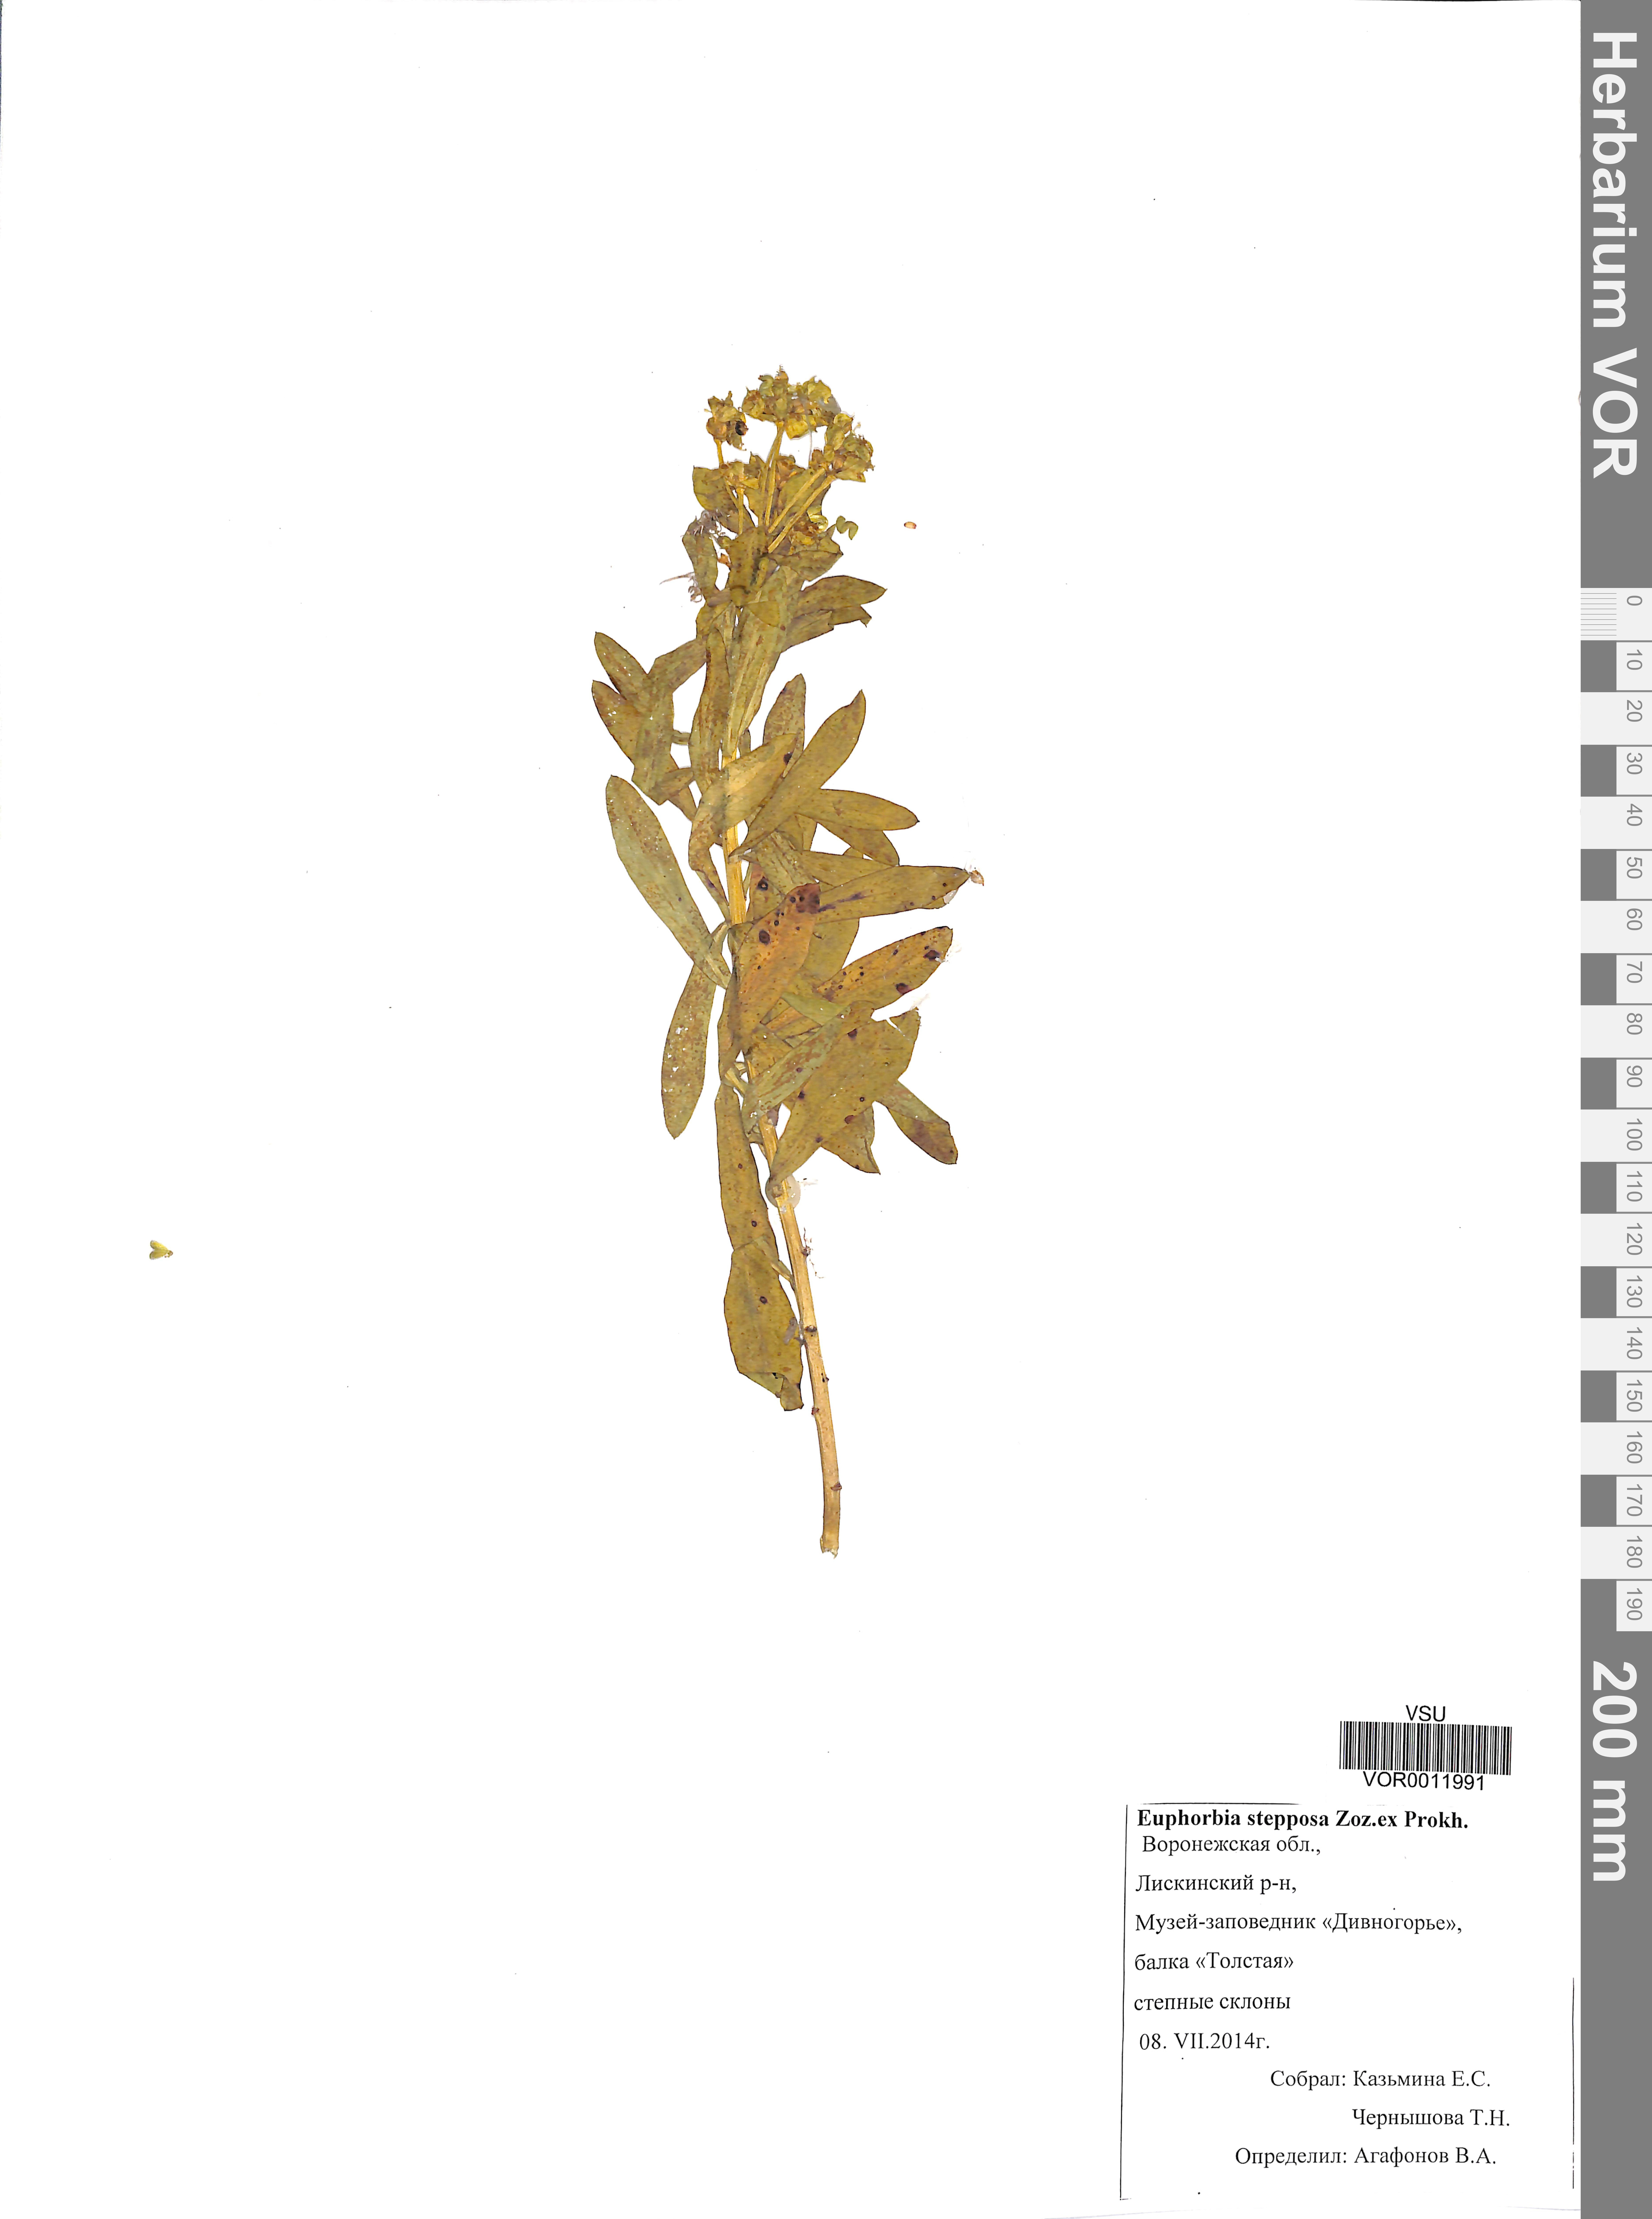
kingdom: Plantae
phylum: Tracheophyta
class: Magnoliopsida
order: Malpighiales
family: Euphorbiaceae
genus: Euphorbia
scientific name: Euphorbia stepposa
